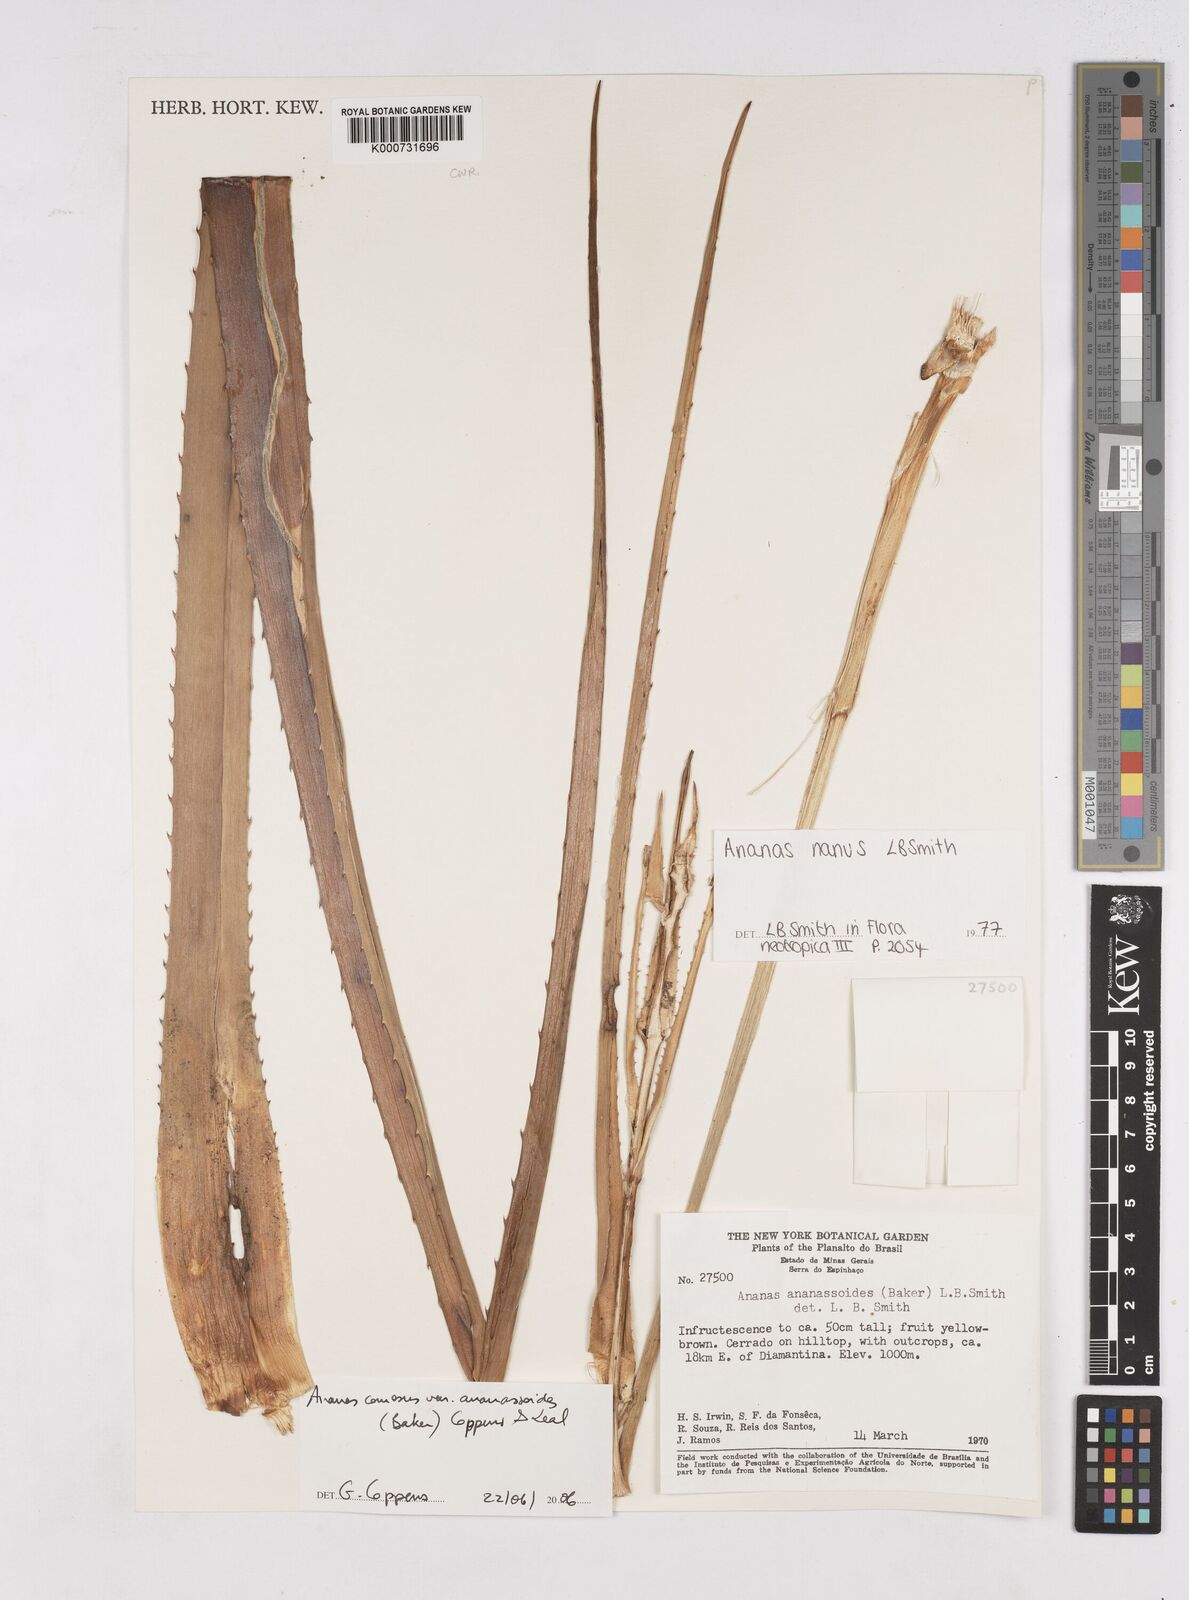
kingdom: Plantae
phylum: Tracheophyta
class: Liliopsida
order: Poales
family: Bromeliaceae
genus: Ananas
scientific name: Ananas comosus
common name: Pineapple
